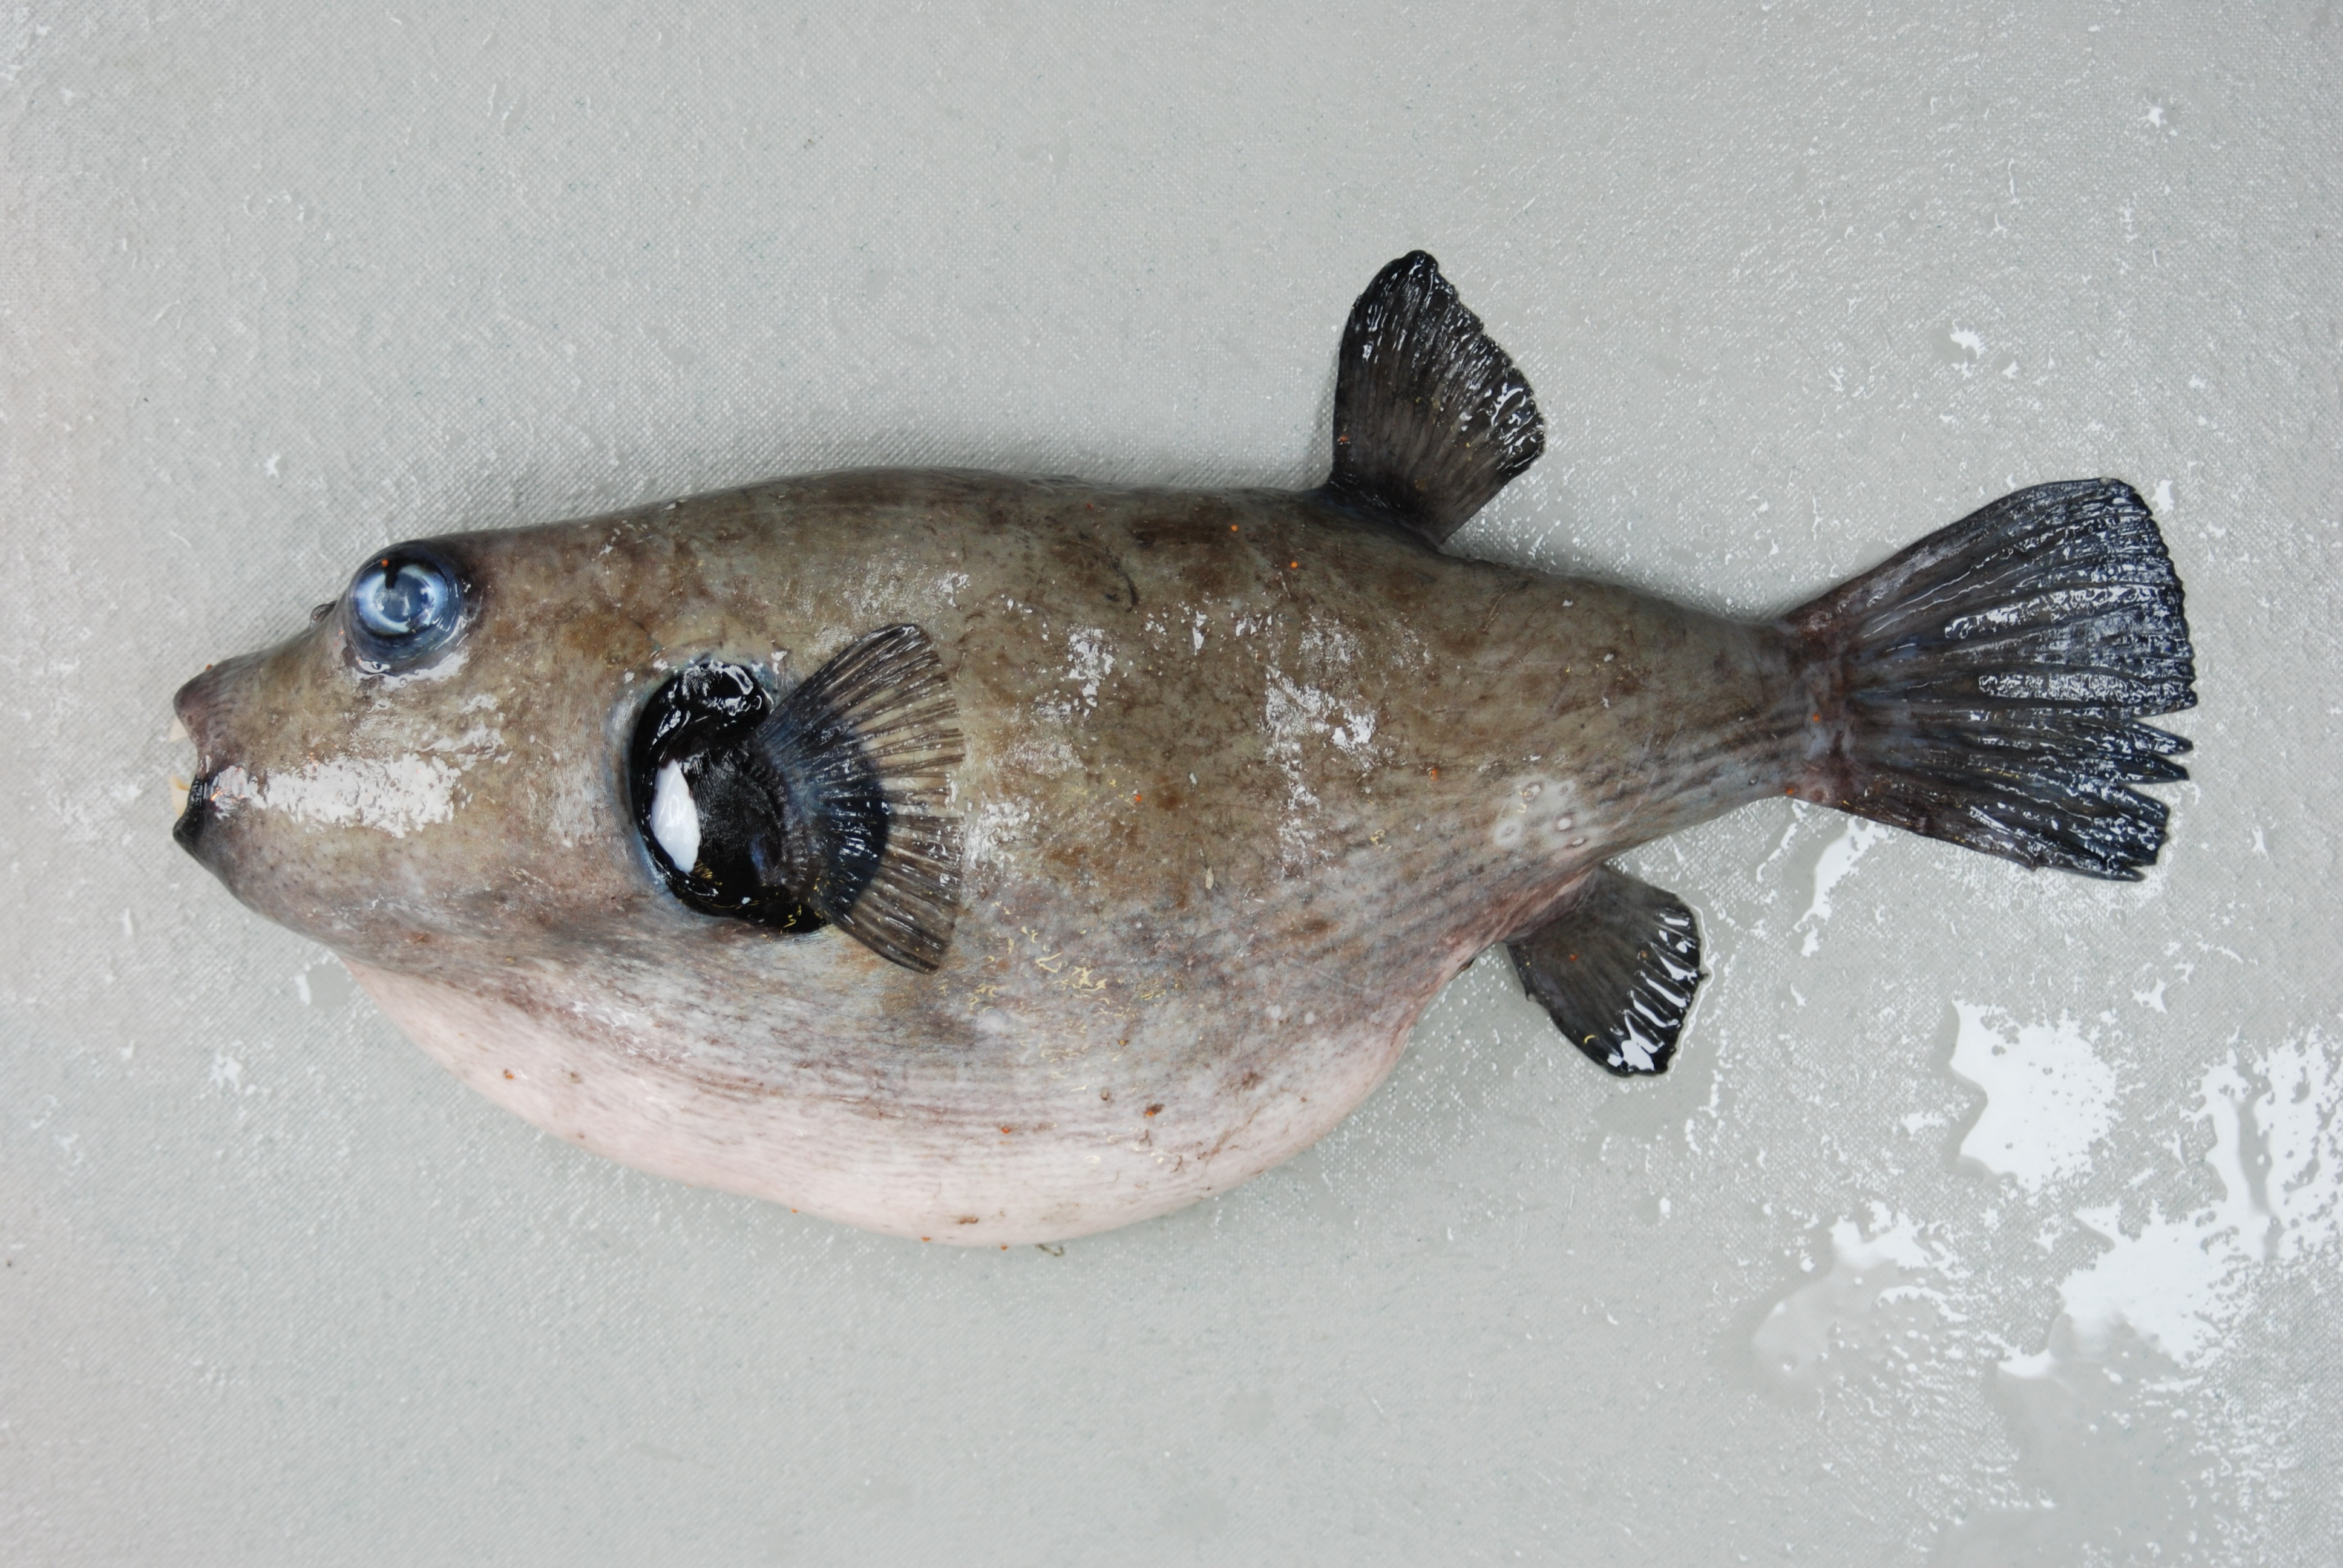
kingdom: Animalia
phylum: Chordata
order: Tetraodontiformes
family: Tetraodontidae
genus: Arothron
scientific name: Arothron inconditus
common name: Bellystriped blaasop
